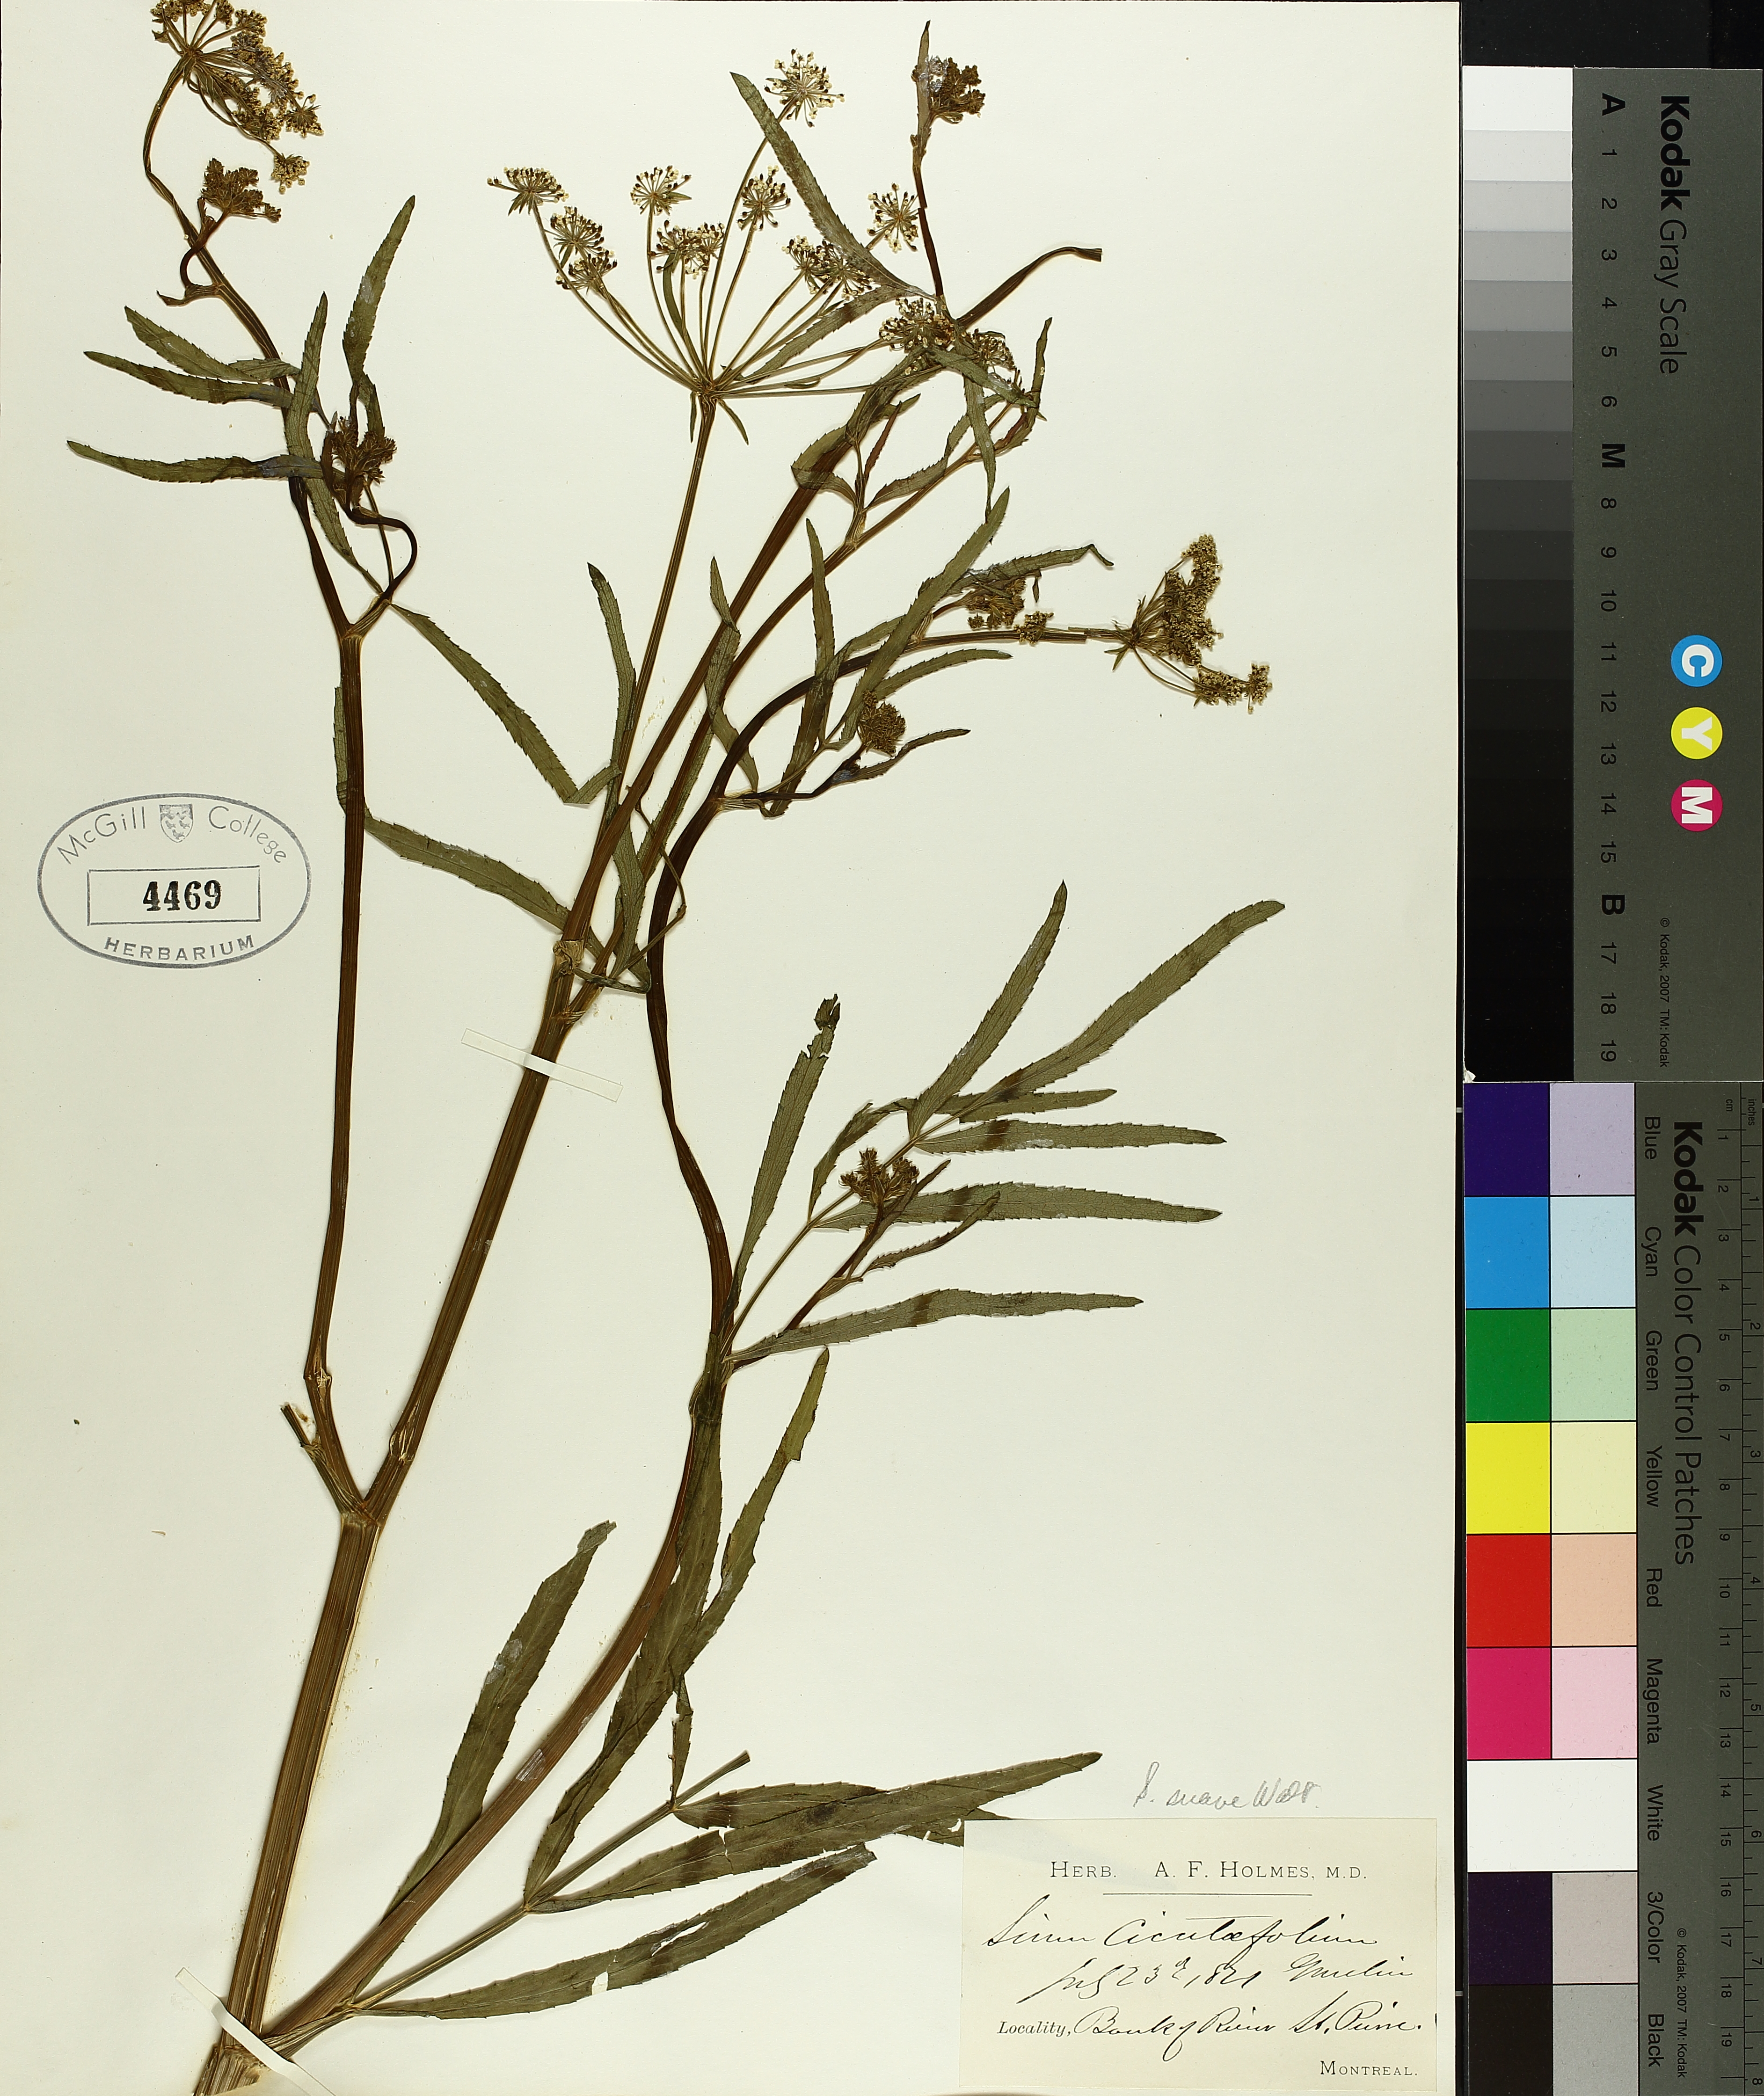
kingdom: Plantae
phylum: Tracheophyta
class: Magnoliopsida
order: Apiales
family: Apiaceae
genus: Sium
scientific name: Sium suave
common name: Hemlock water-parsnip
